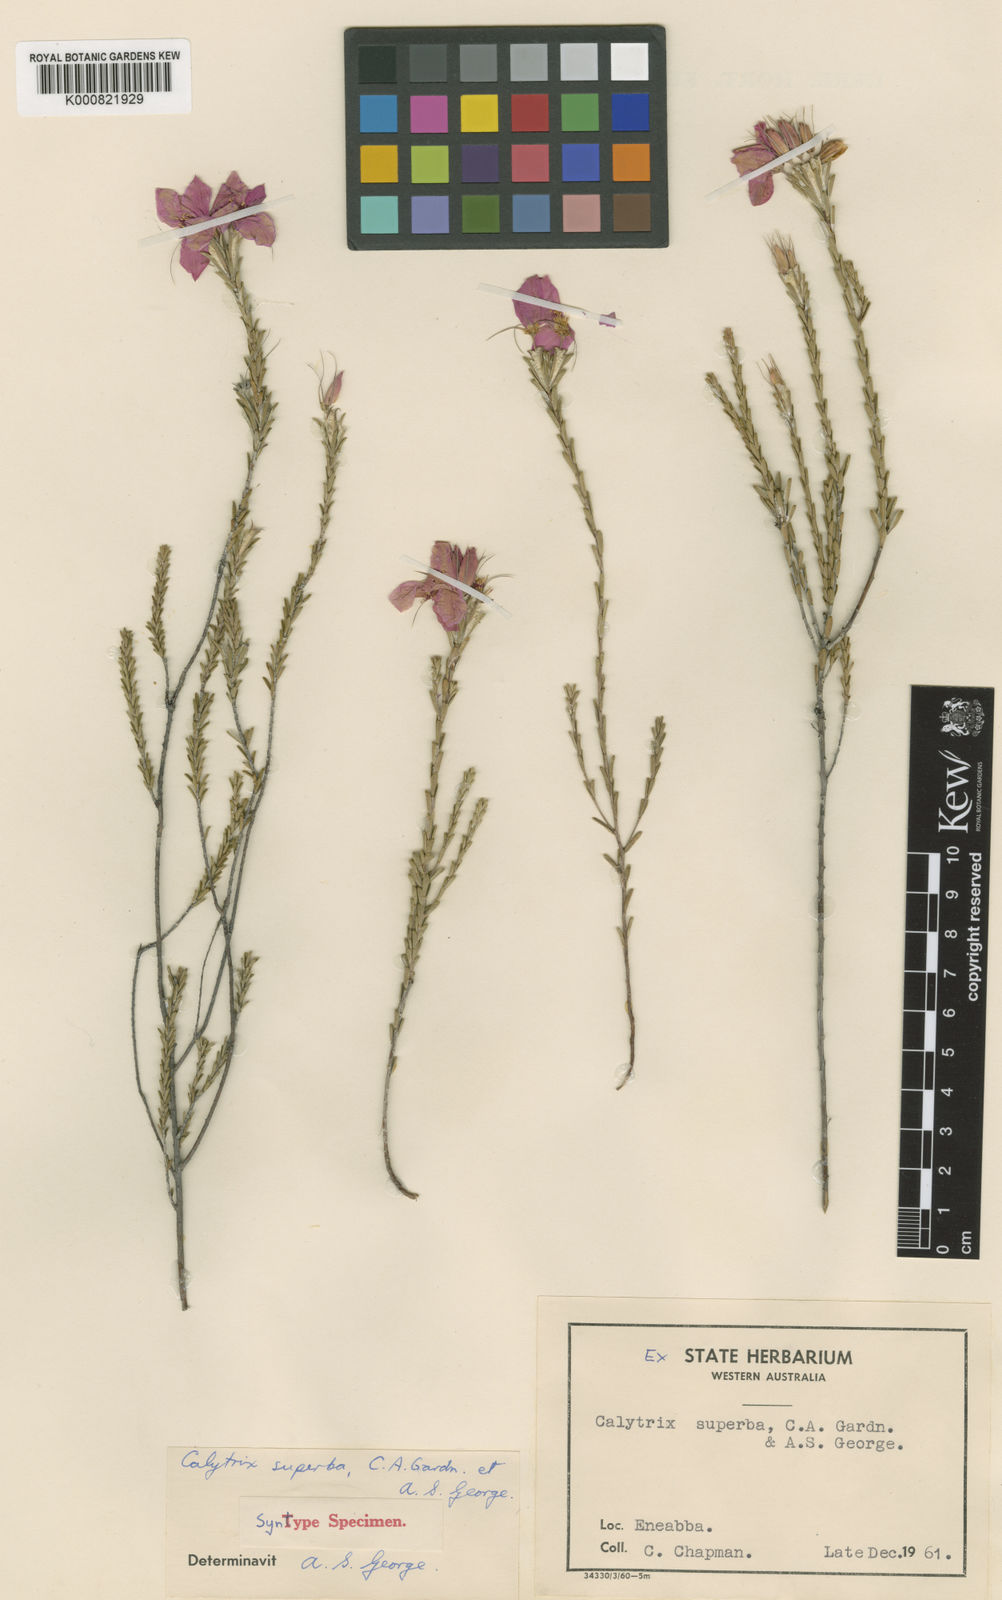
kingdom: Plantae
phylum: Tracheophyta
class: Magnoliopsida
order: Myrtales
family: Myrtaceae
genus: Calytrix
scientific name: Calytrix superba
